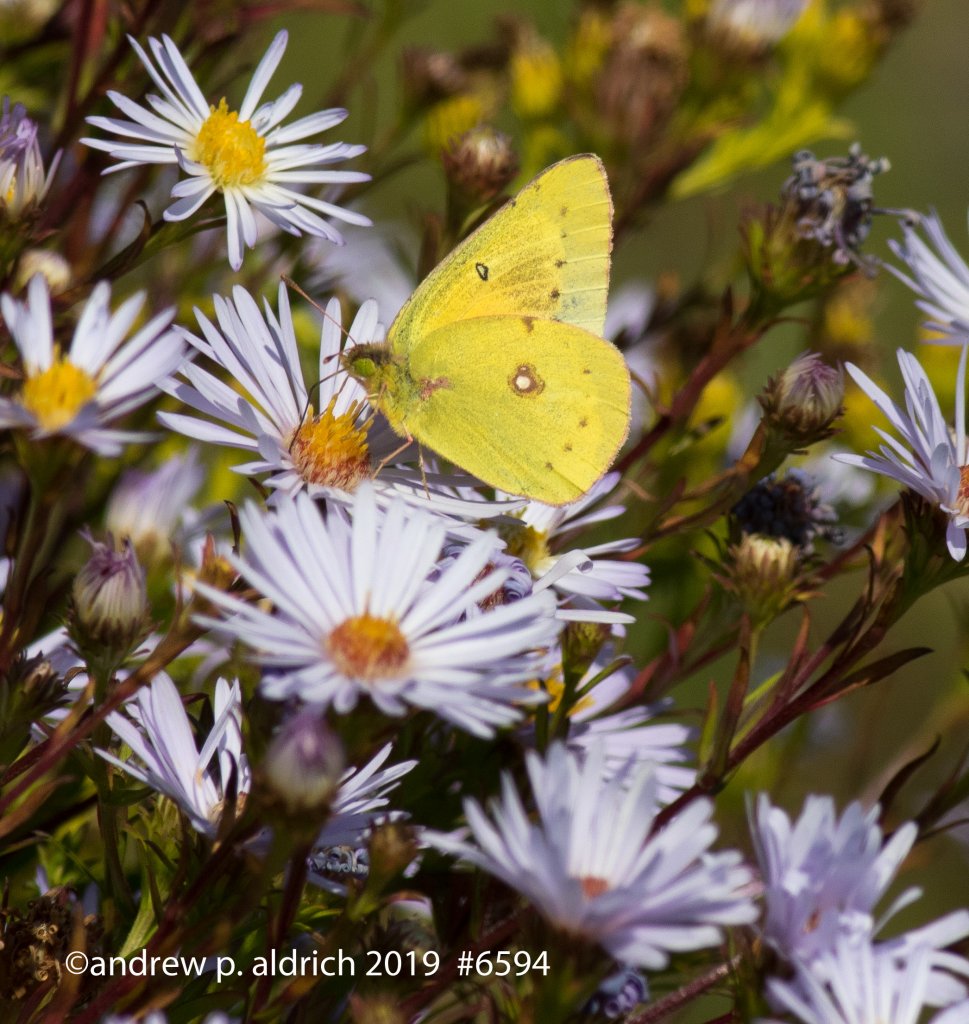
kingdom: Animalia
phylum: Arthropoda
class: Insecta
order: Lepidoptera
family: Pieridae
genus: Colias
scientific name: Colias eurytheme
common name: Orange Sulphur
